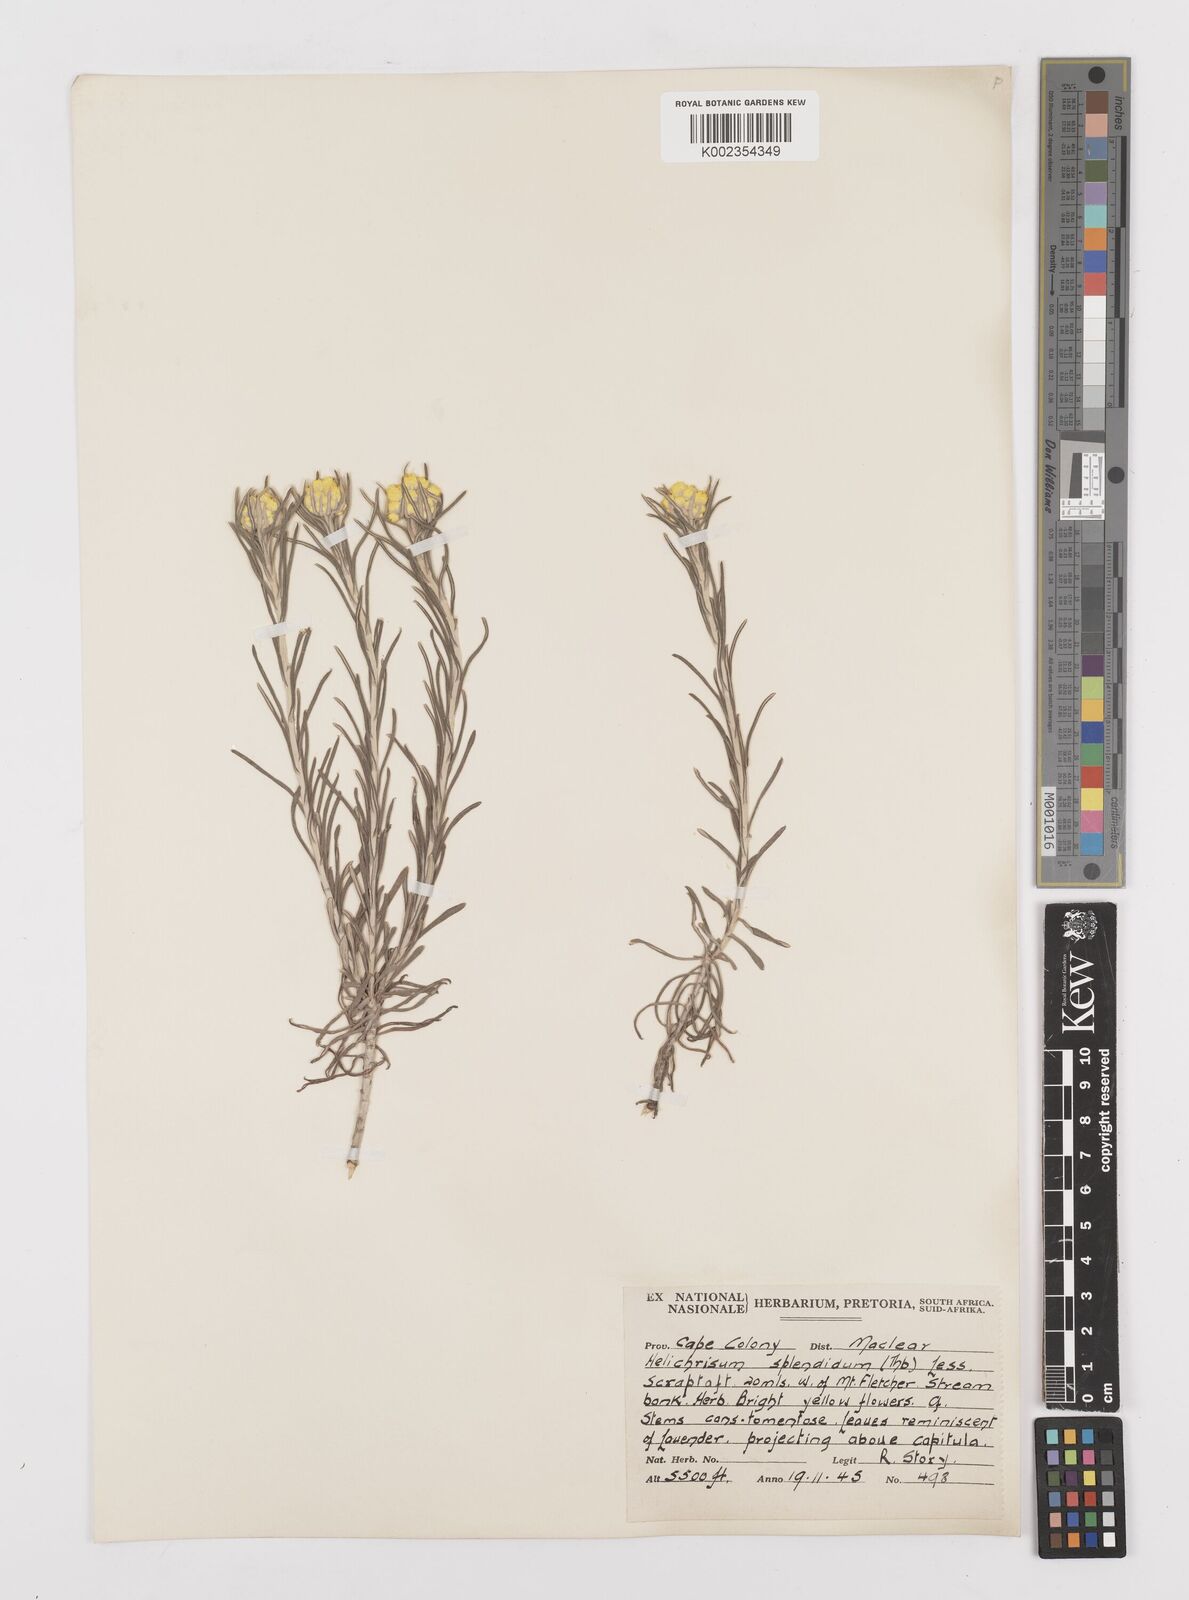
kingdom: Plantae
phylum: Tracheophyta
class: Magnoliopsida
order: Asterales
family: Asteraceae
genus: Helichrysum
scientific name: Helichrysum splendidum
